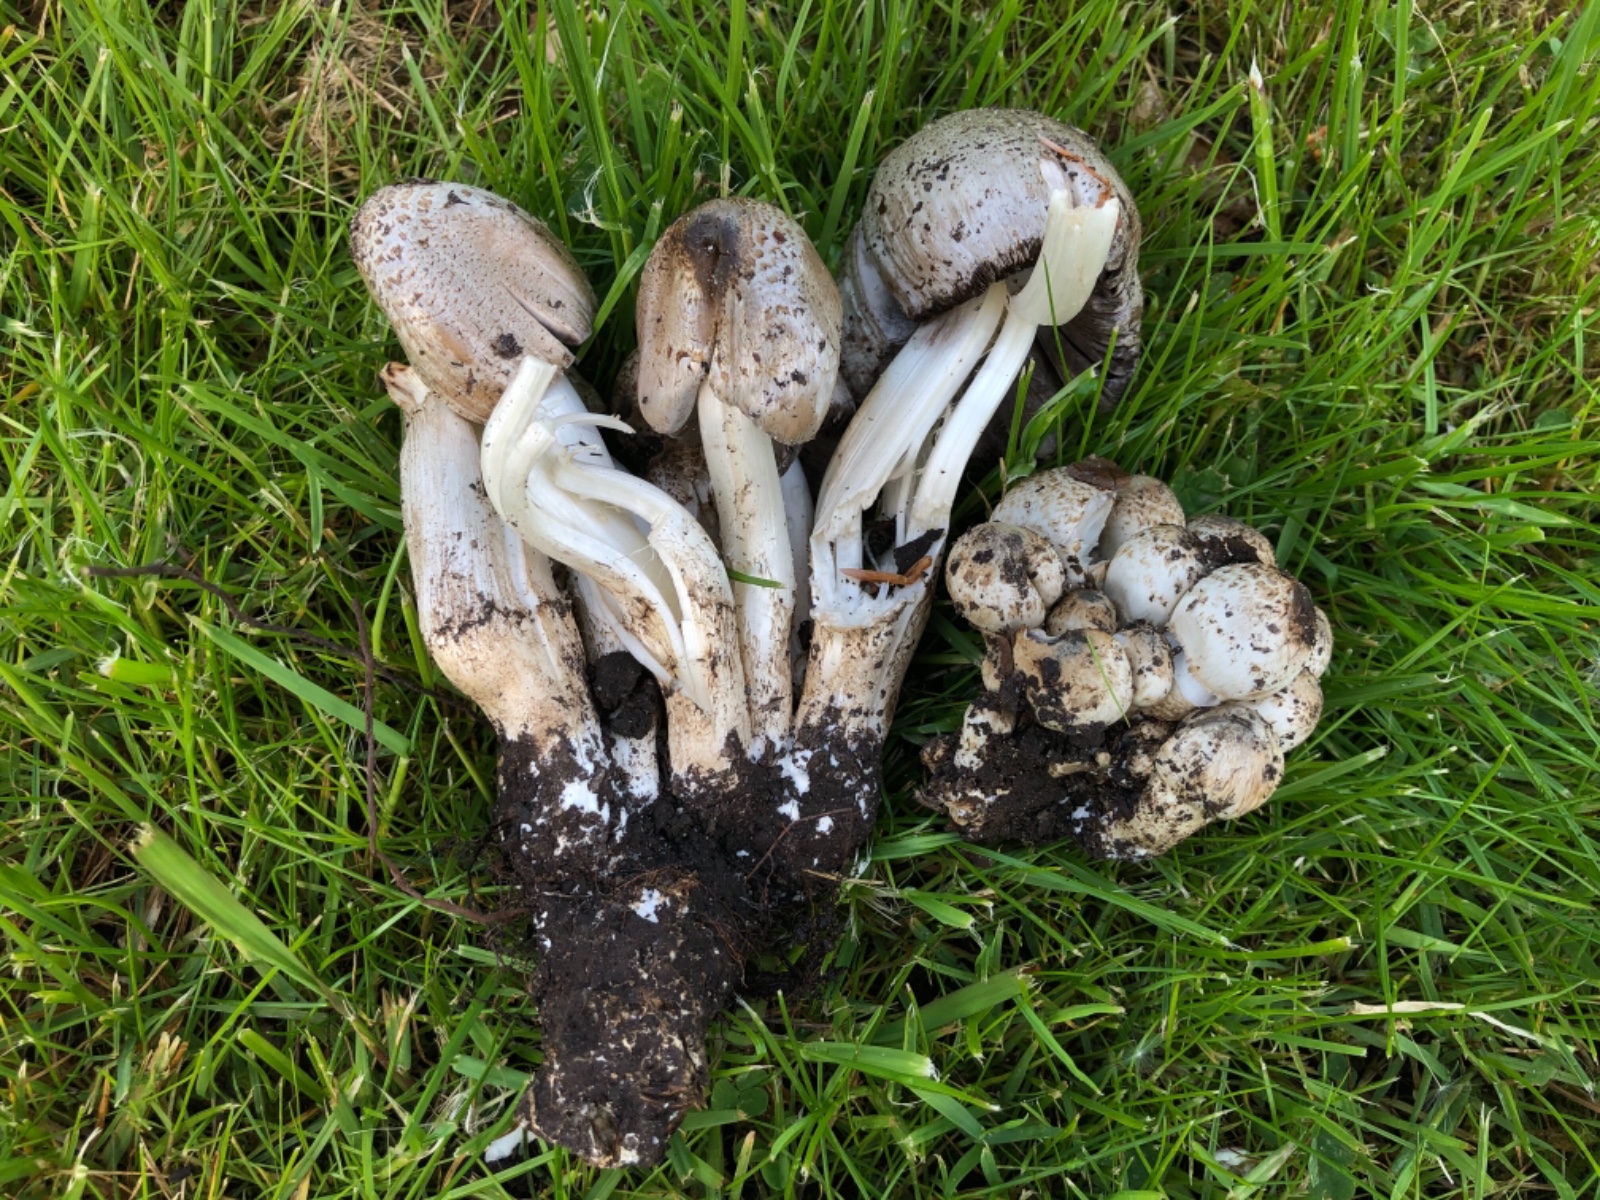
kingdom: Fungi
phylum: Basidiomycota
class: Agaricomycetes
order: Agaricales
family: Psathyrellaceae
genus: Coprinopsis
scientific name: Coprinopsis romagnesiana
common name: brunskællet blækhat
